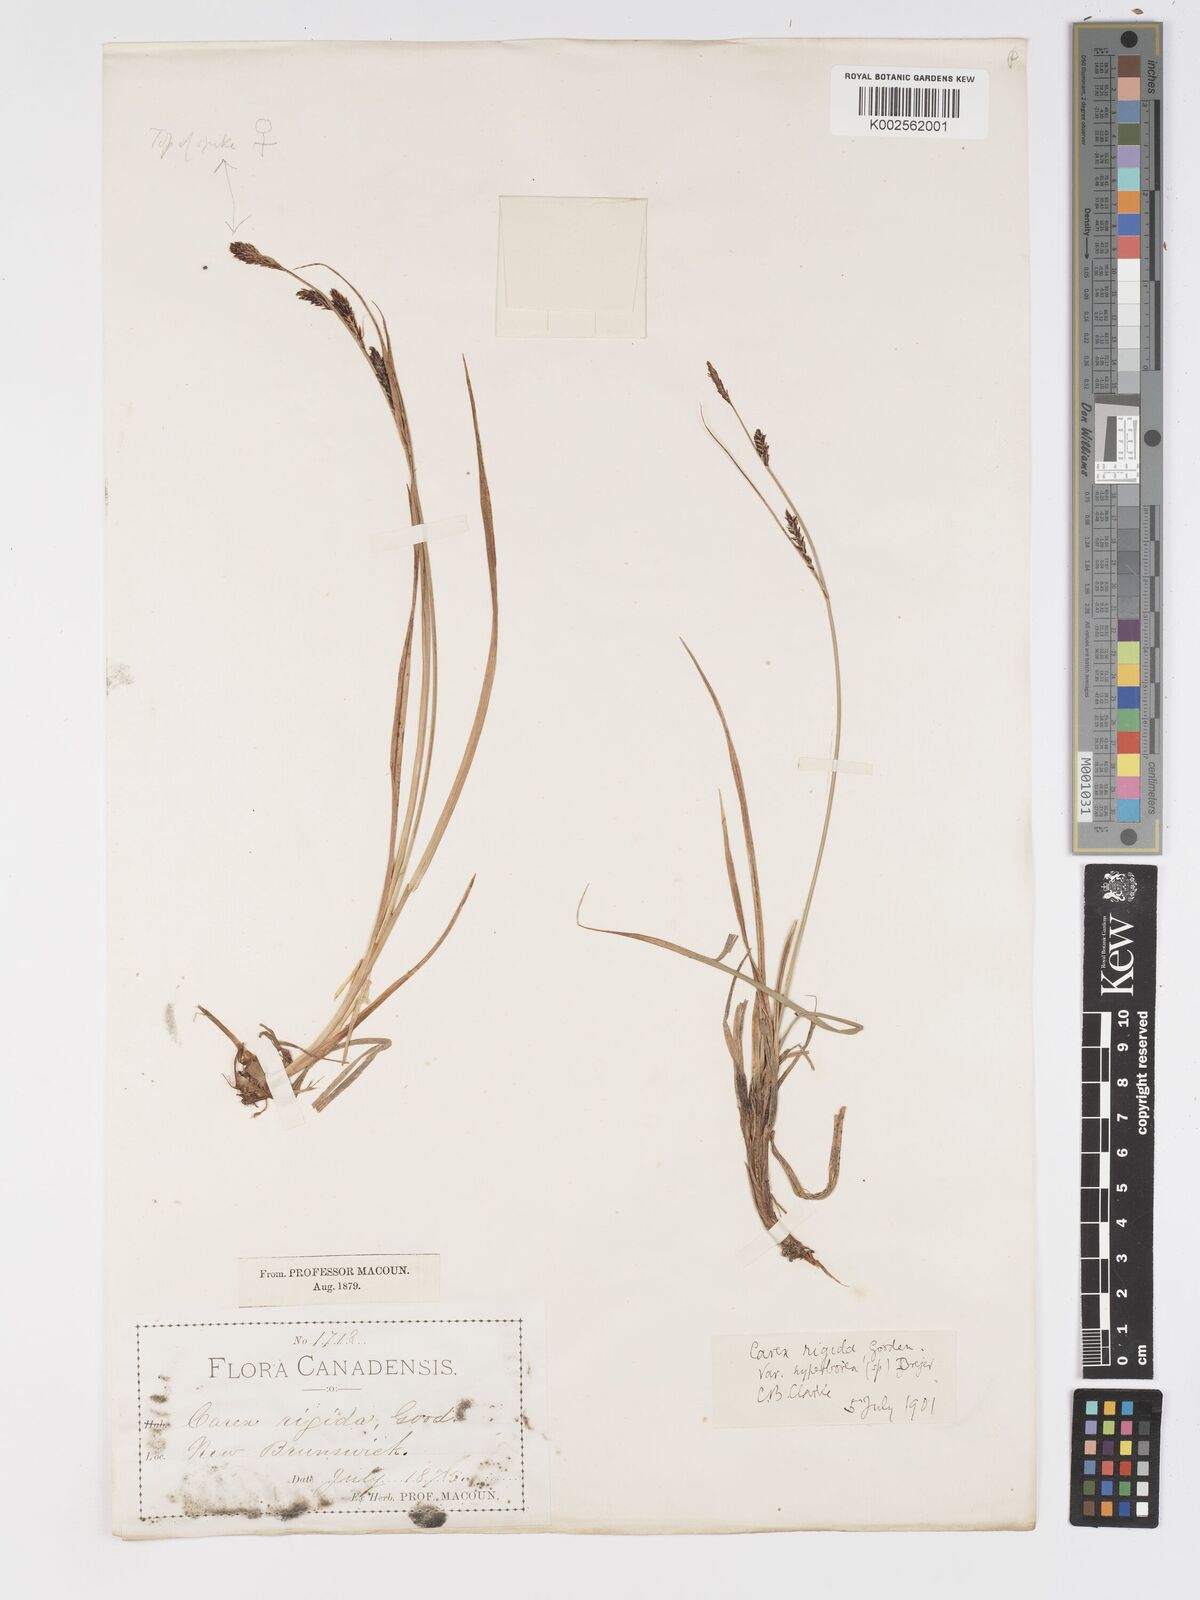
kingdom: Plantae
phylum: Tracheophyta
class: Liliopsida
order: Poales
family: Cyperaceae
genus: Carex
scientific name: Carex bigelowii
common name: Stiff sedge
